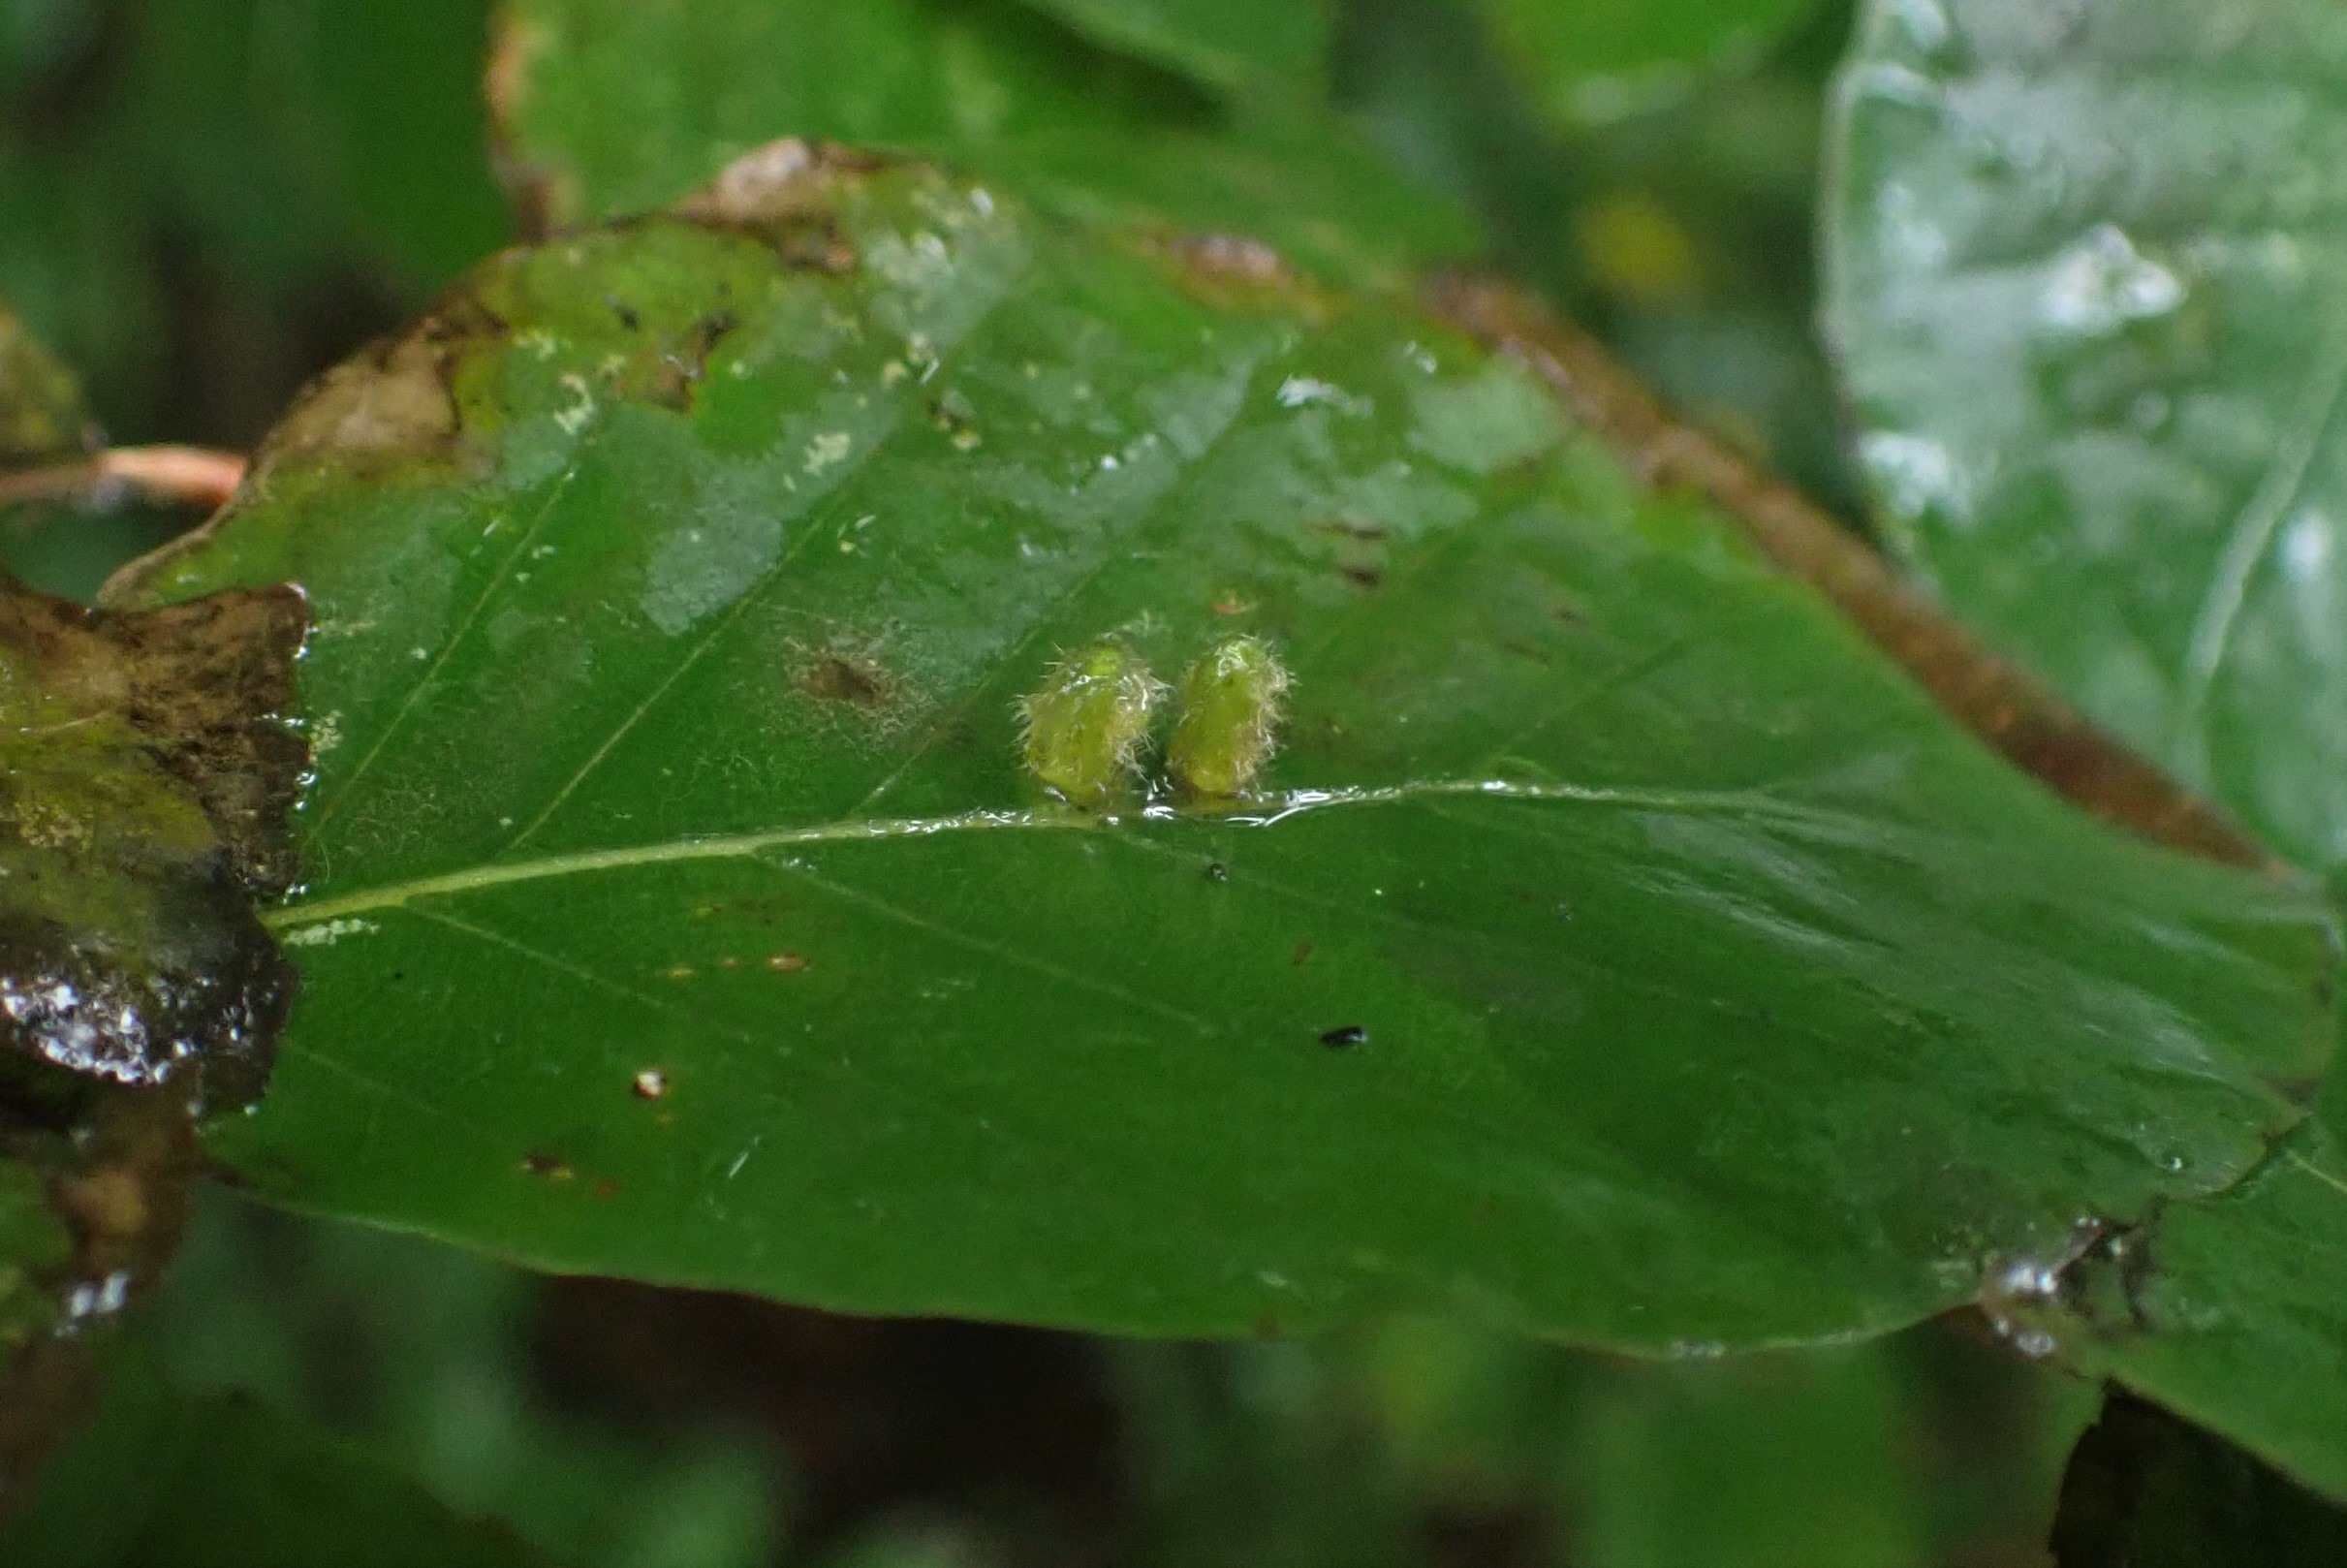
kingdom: Animalia
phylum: Arthropoda
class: Insecta
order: Diptera
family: Cecidomyiidae
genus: Hartigiola
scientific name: Hartigiola annulipes
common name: Skovtroldegalmyg
